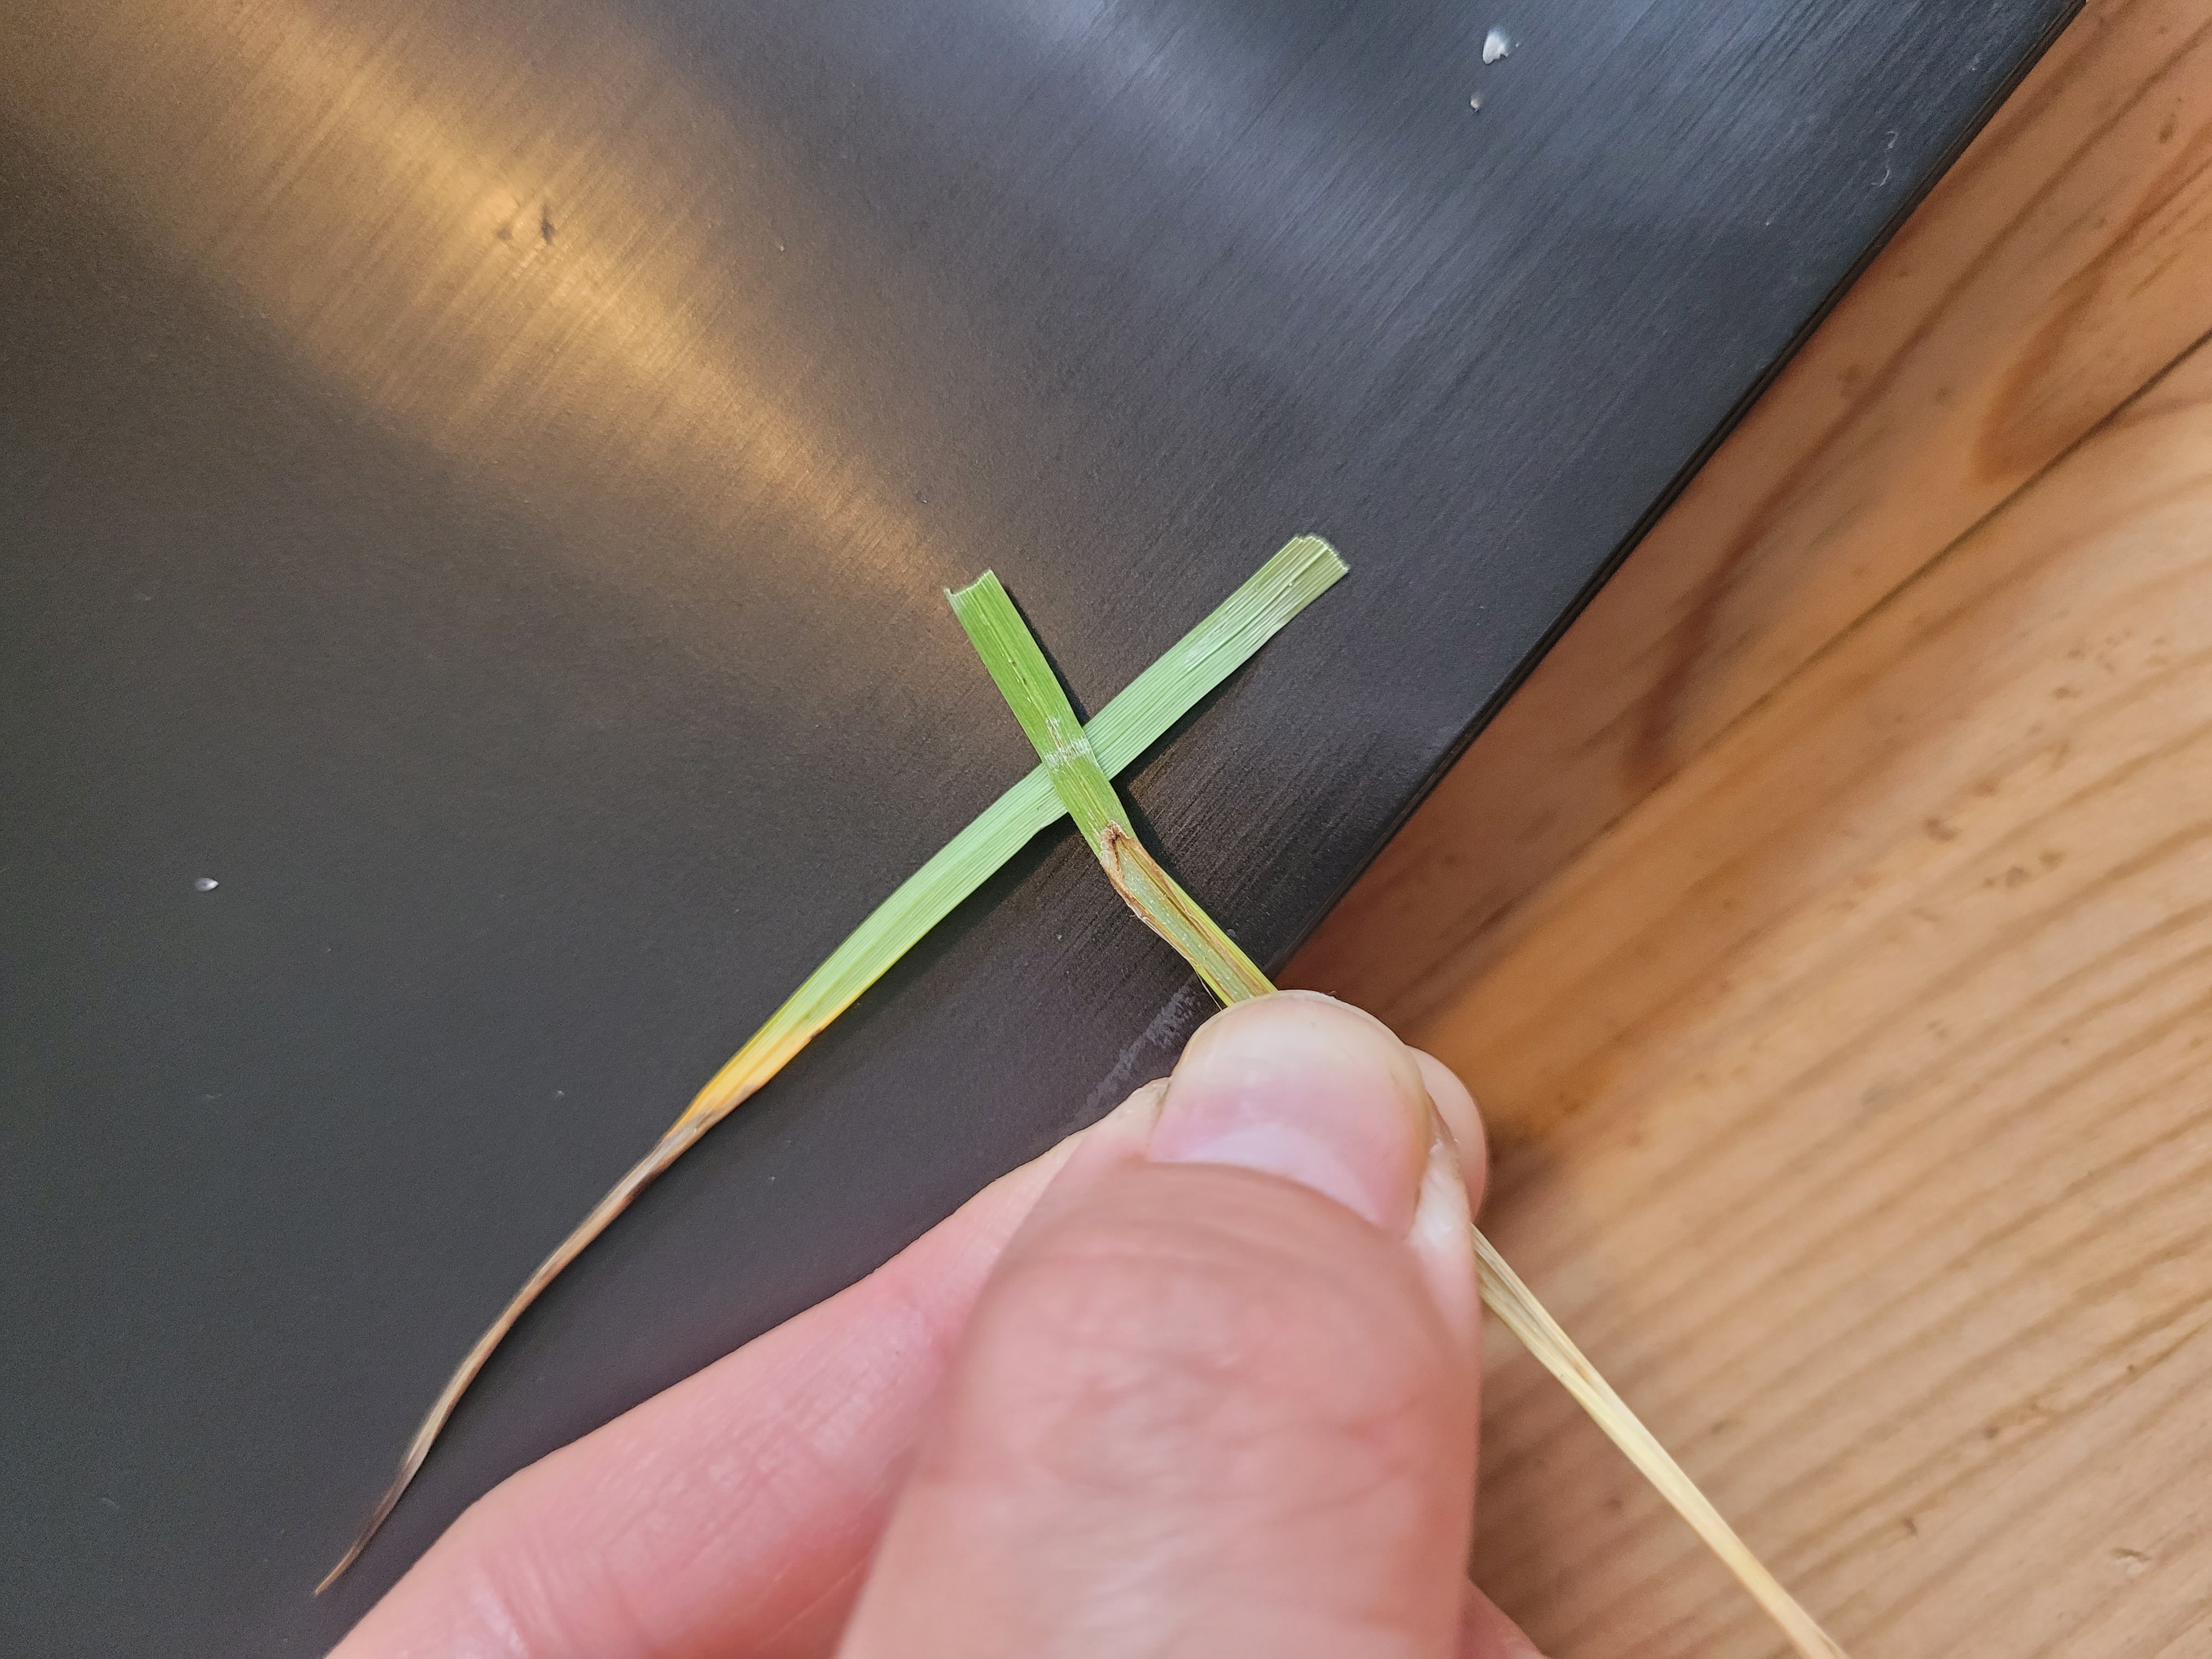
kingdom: Plantae
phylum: Tracheophyta
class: Liliopsida
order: Poales
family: Cyperaceae
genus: Carex
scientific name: Carex flacca
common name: Blågrøn star
